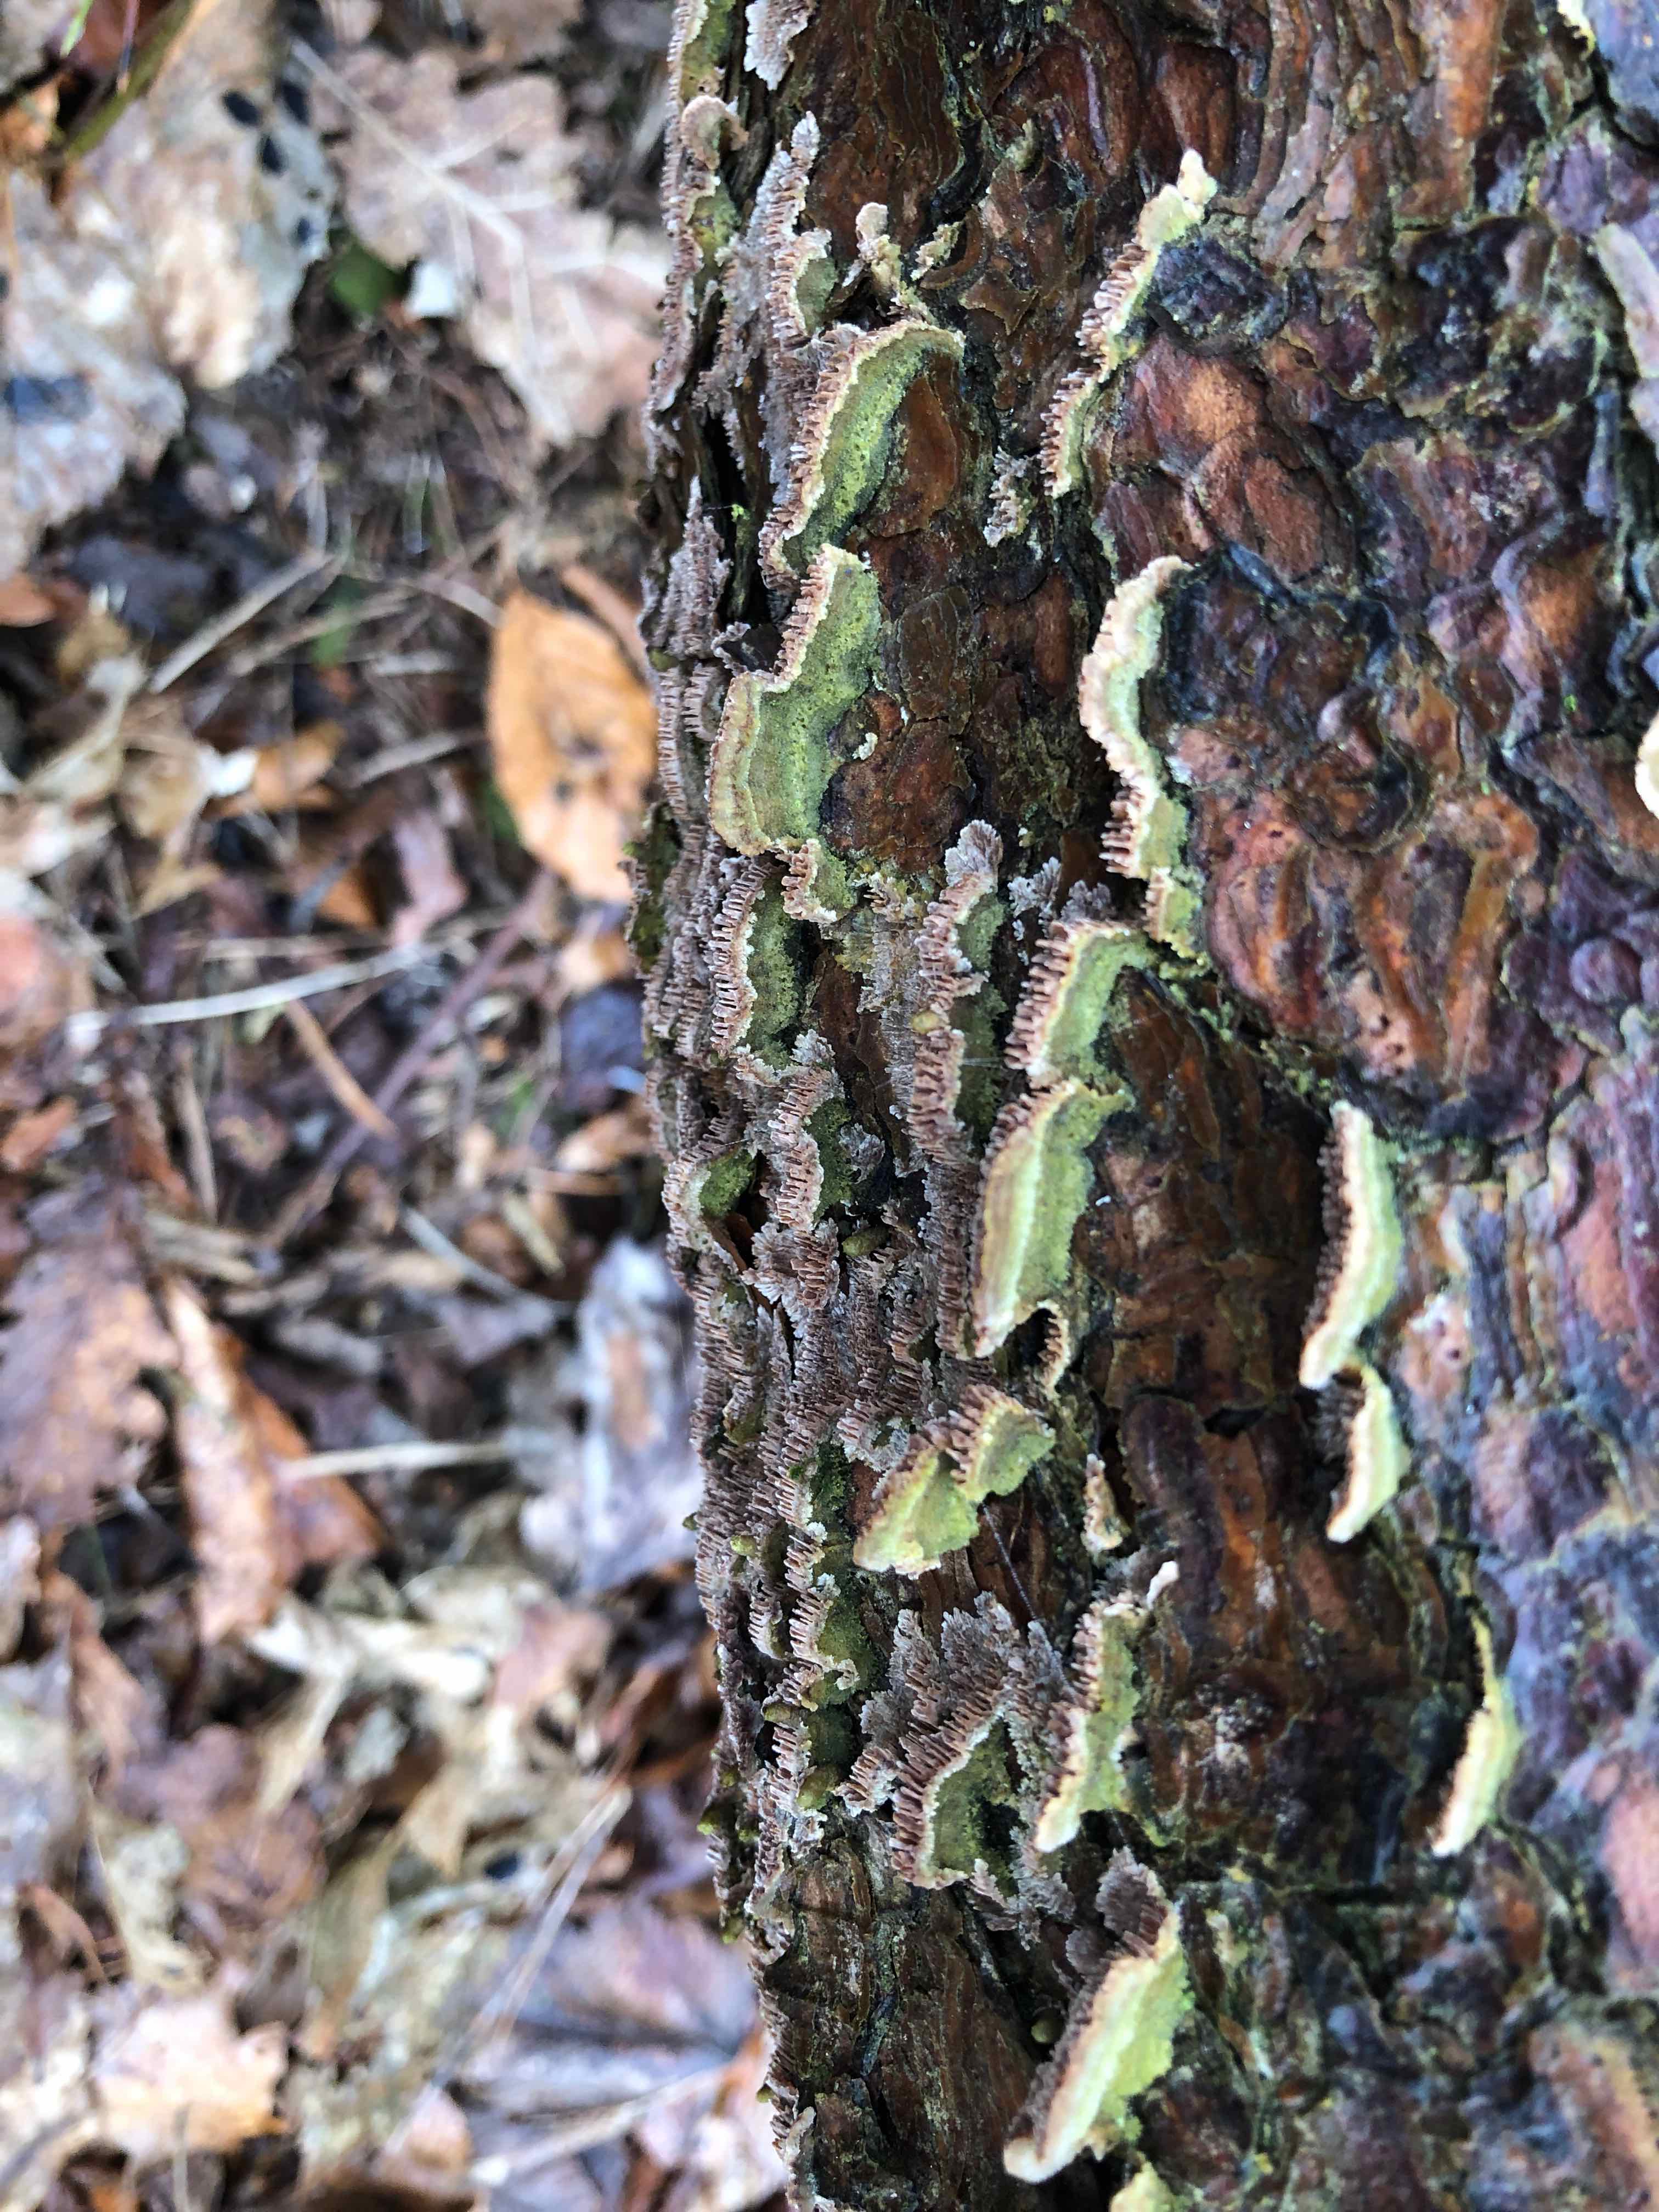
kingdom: Fungi
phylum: Basidiomycota
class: Agaricomycetes
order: Hymenochaetales
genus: Trichaptum
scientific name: Trichaptum fuscoviolaceum
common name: tandet violporesvamp
